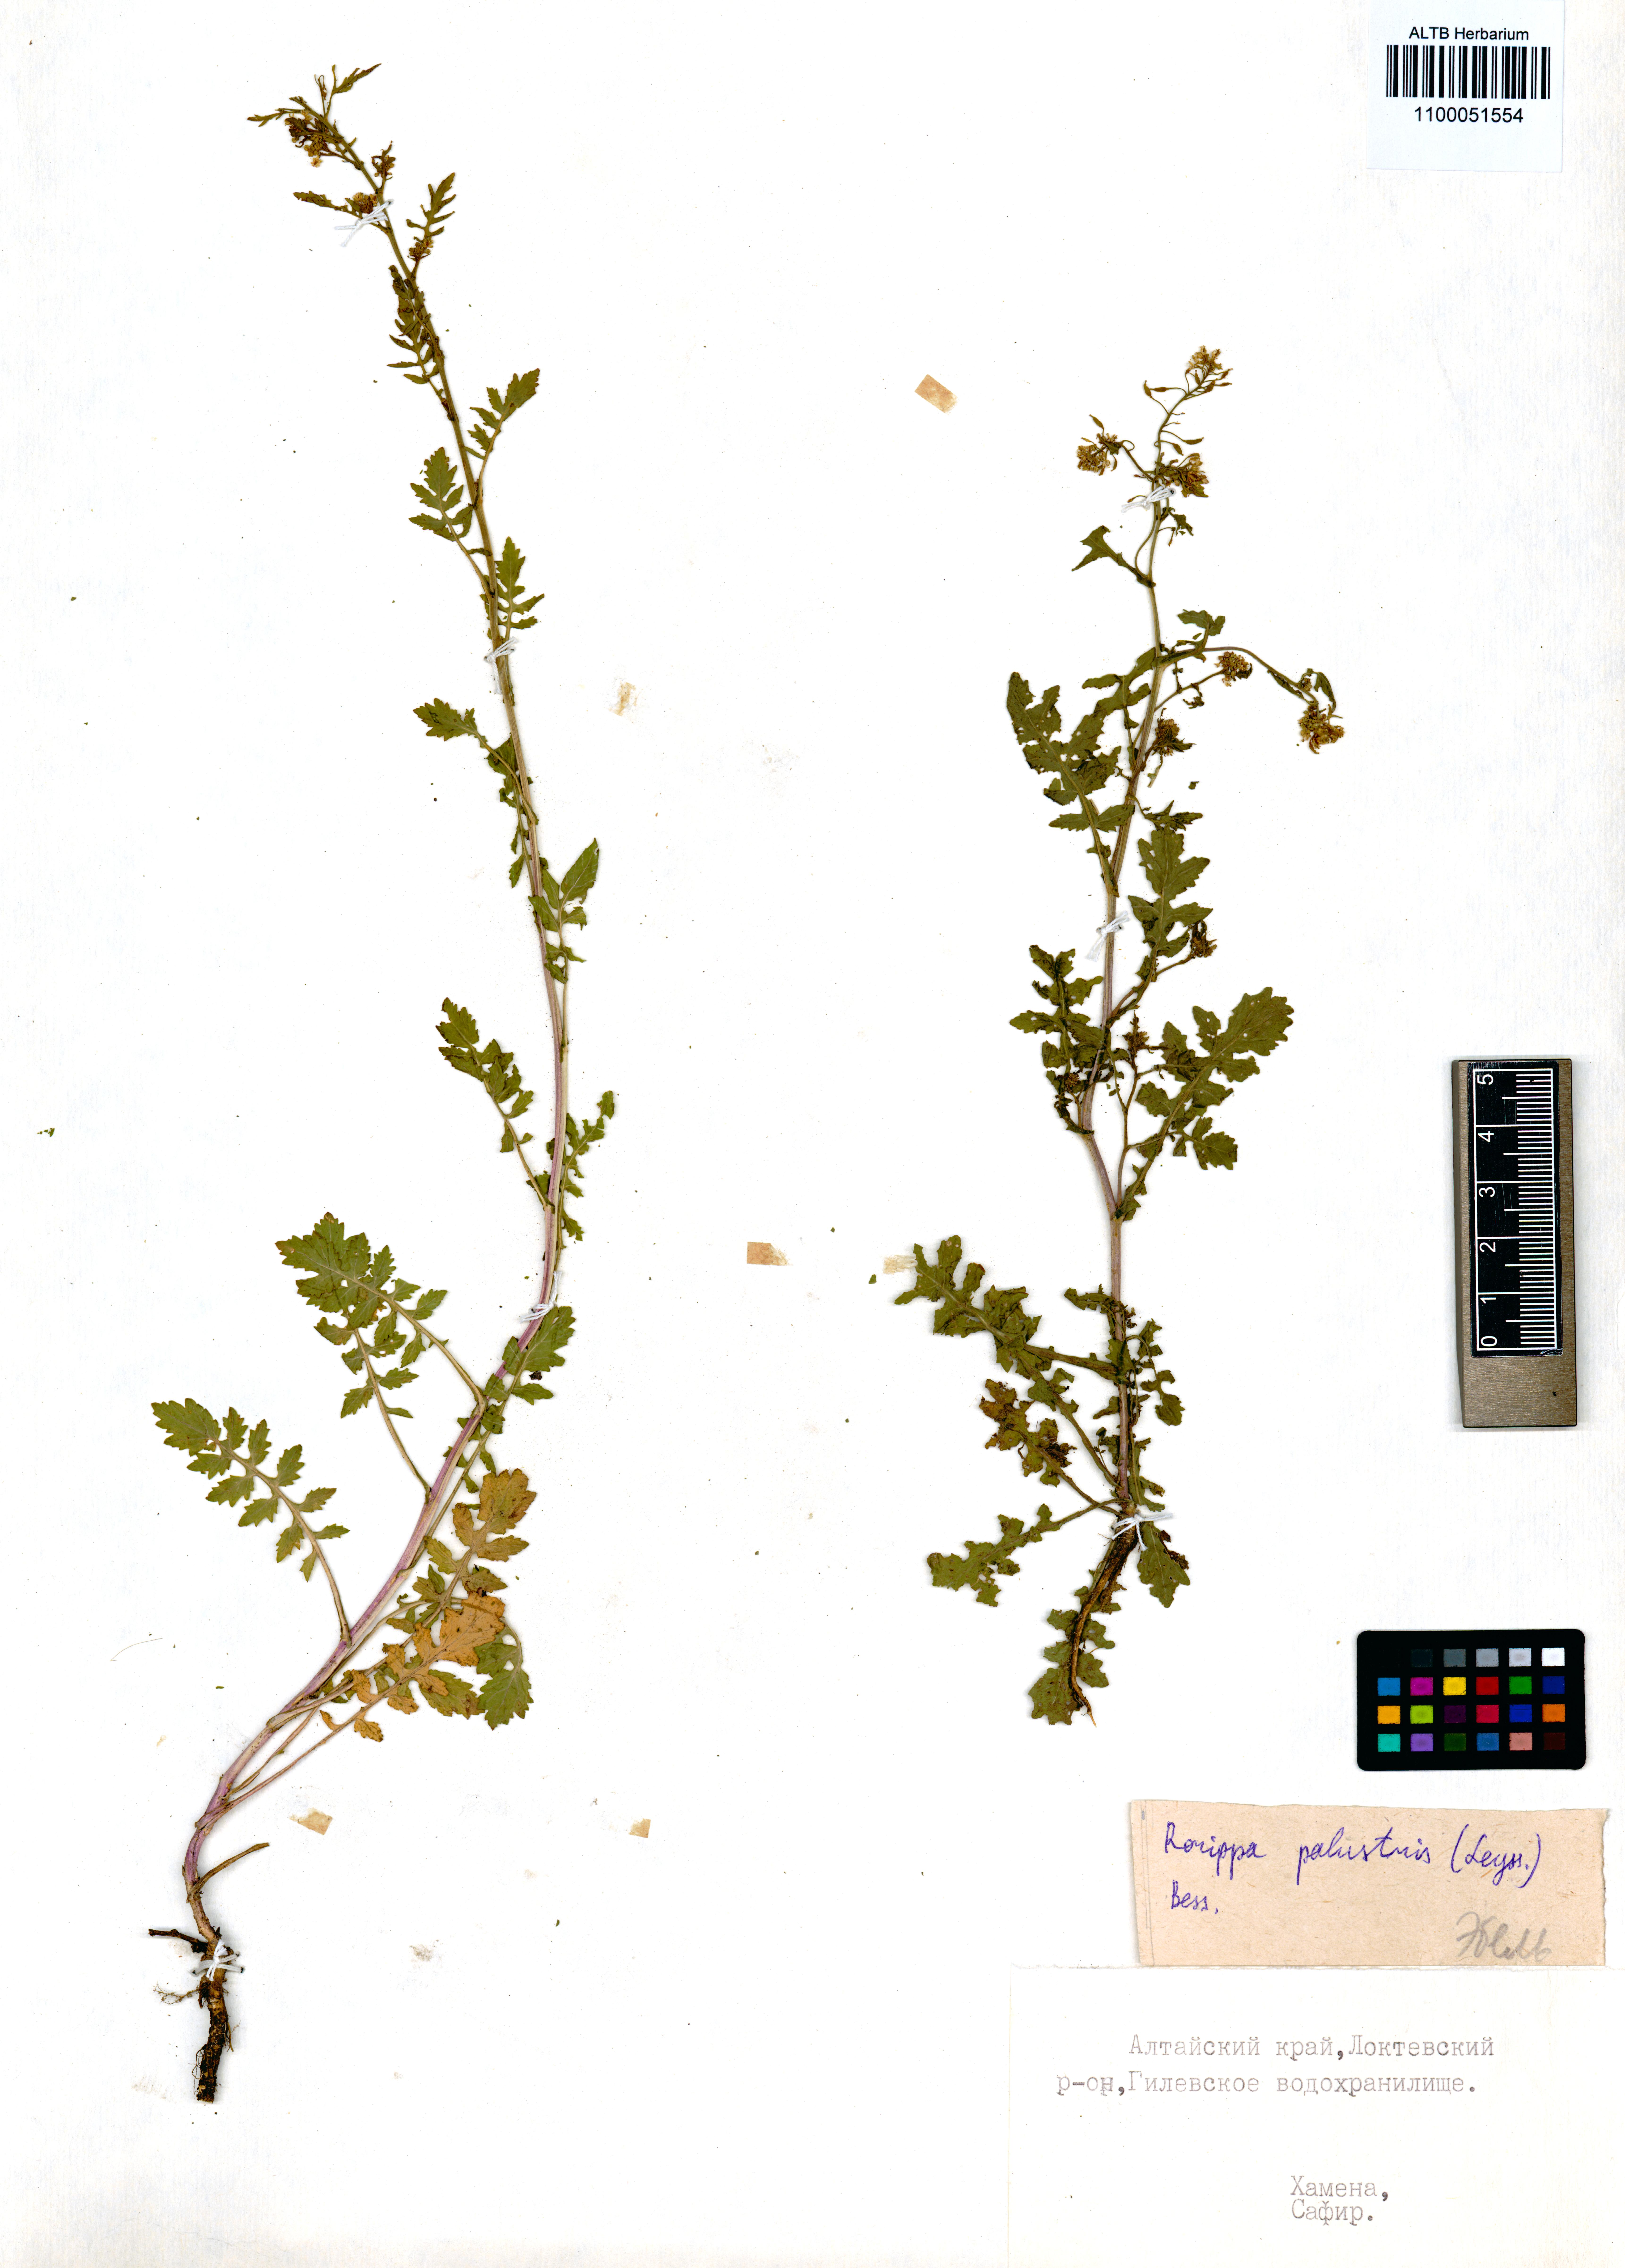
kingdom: Plantae
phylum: Tracheophyta
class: Magnoliopsida
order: Brassicales
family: Brassicaceae
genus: Rorippa
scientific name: Rorippa palustris
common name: Marsh yellow-cress
